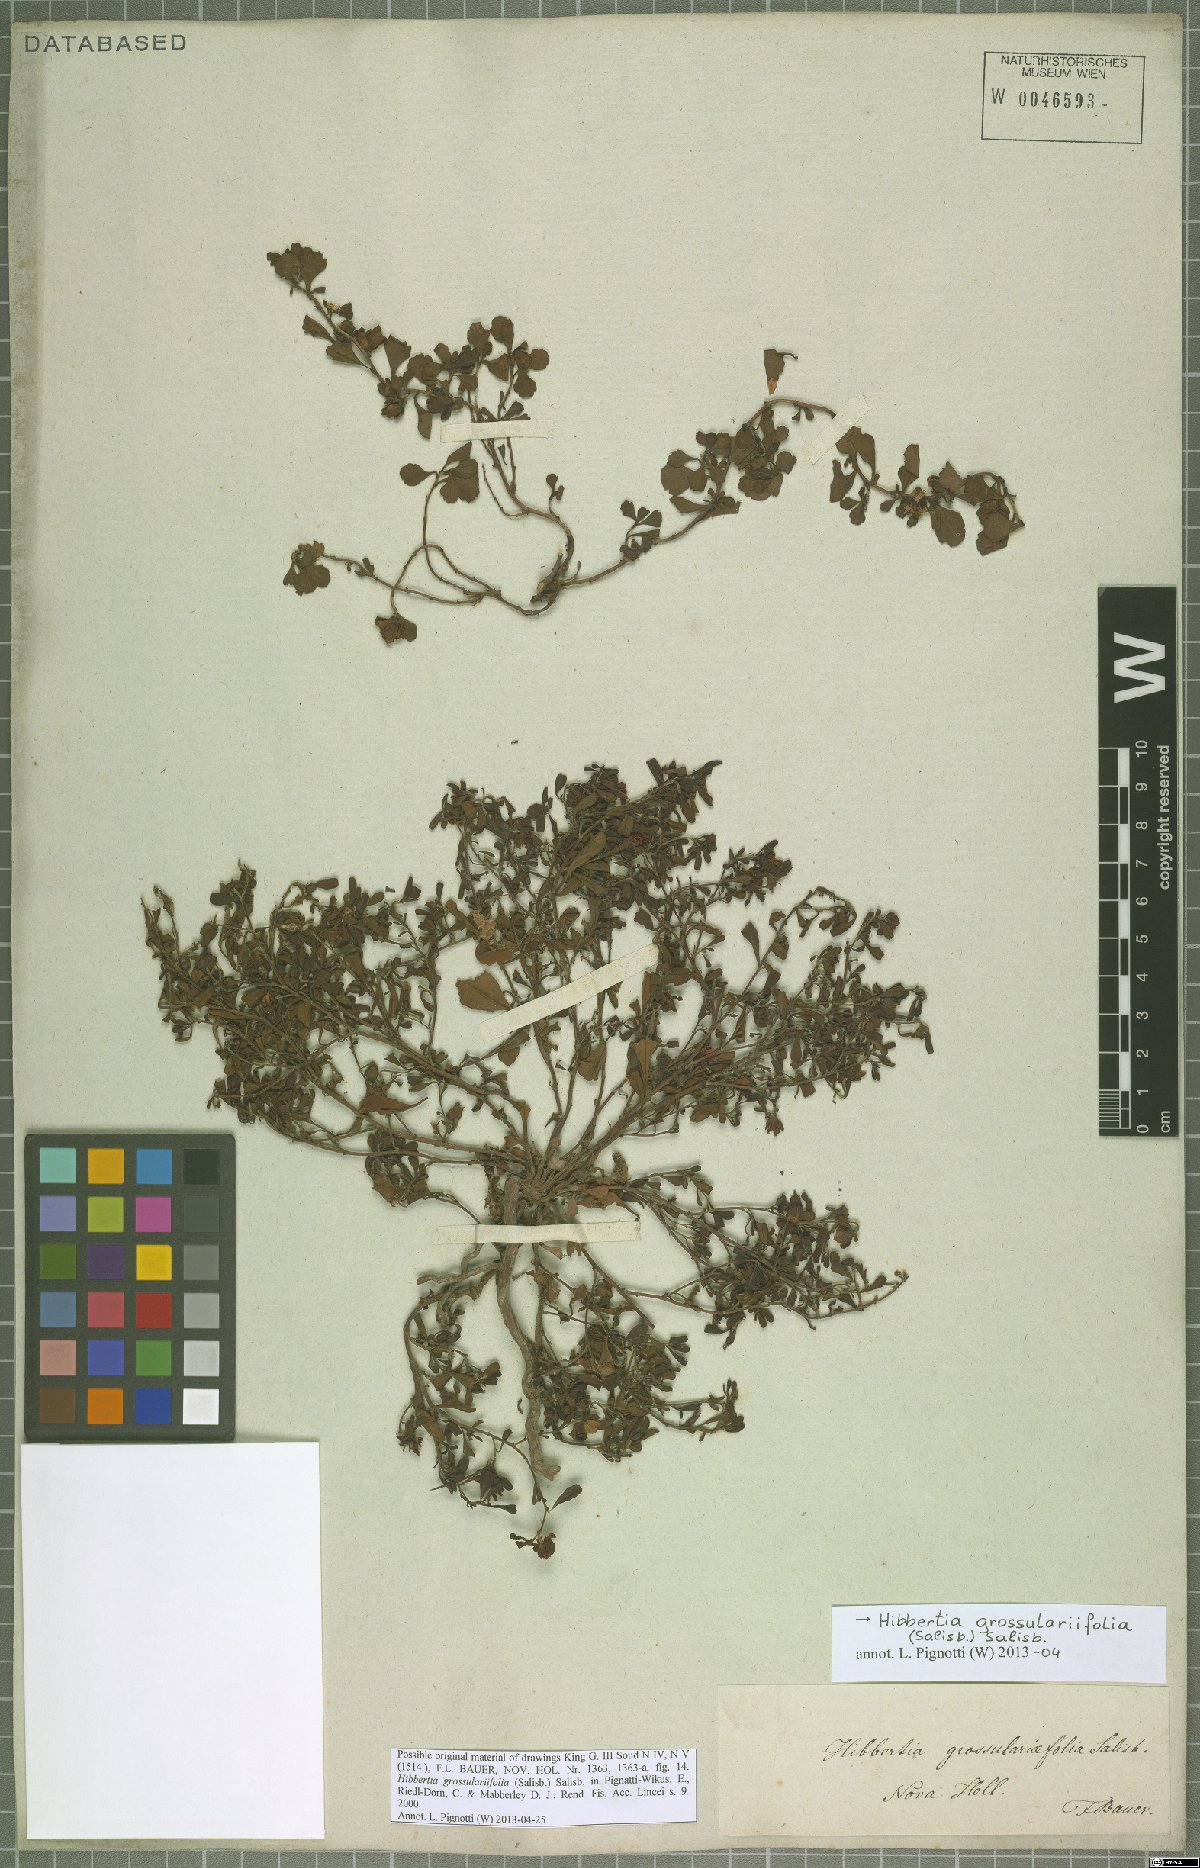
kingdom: Plantae
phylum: Tracheophyta
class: Magnoliopsida
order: Dilleniales
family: Dilleniaceae
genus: Hibbertia
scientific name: Hibbertia grossulariifolia
